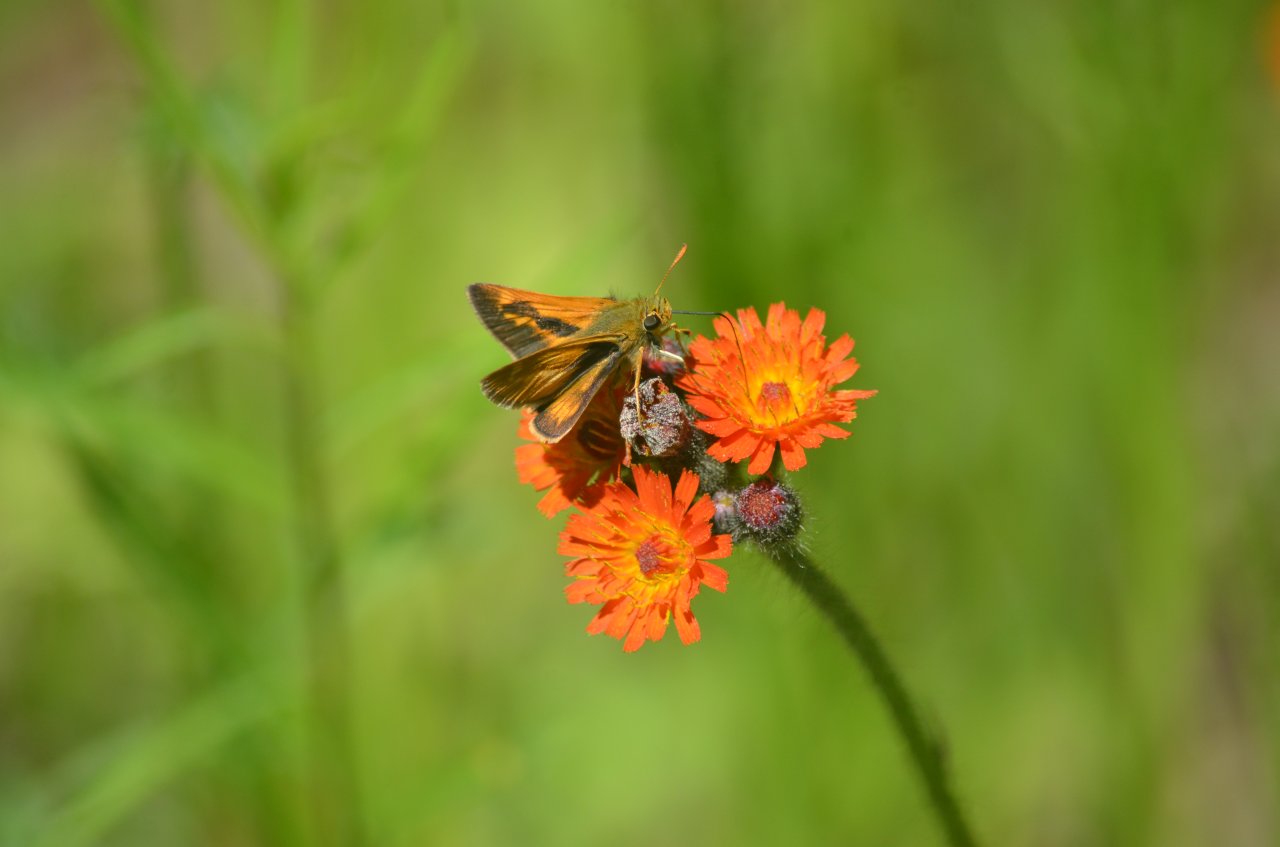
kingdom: Animalia
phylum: Arthropoda
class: Insecta
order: Lepidoptera
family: Hesperiidae
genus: Polites
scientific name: Polites
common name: Long Dash Skipper
